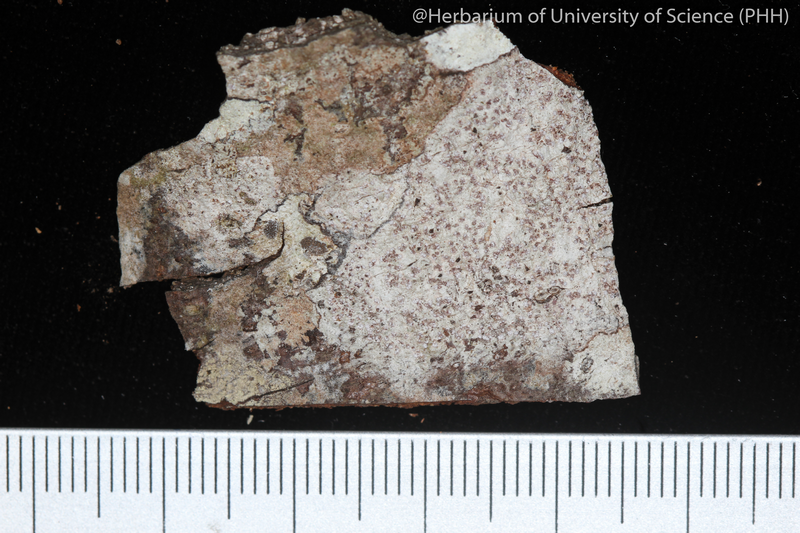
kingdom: Fungi
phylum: Ascomycota
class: Lecanoromycetes
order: Ostropales
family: Graphidaceae
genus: Glyphis
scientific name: Glyphis cicatricosa
